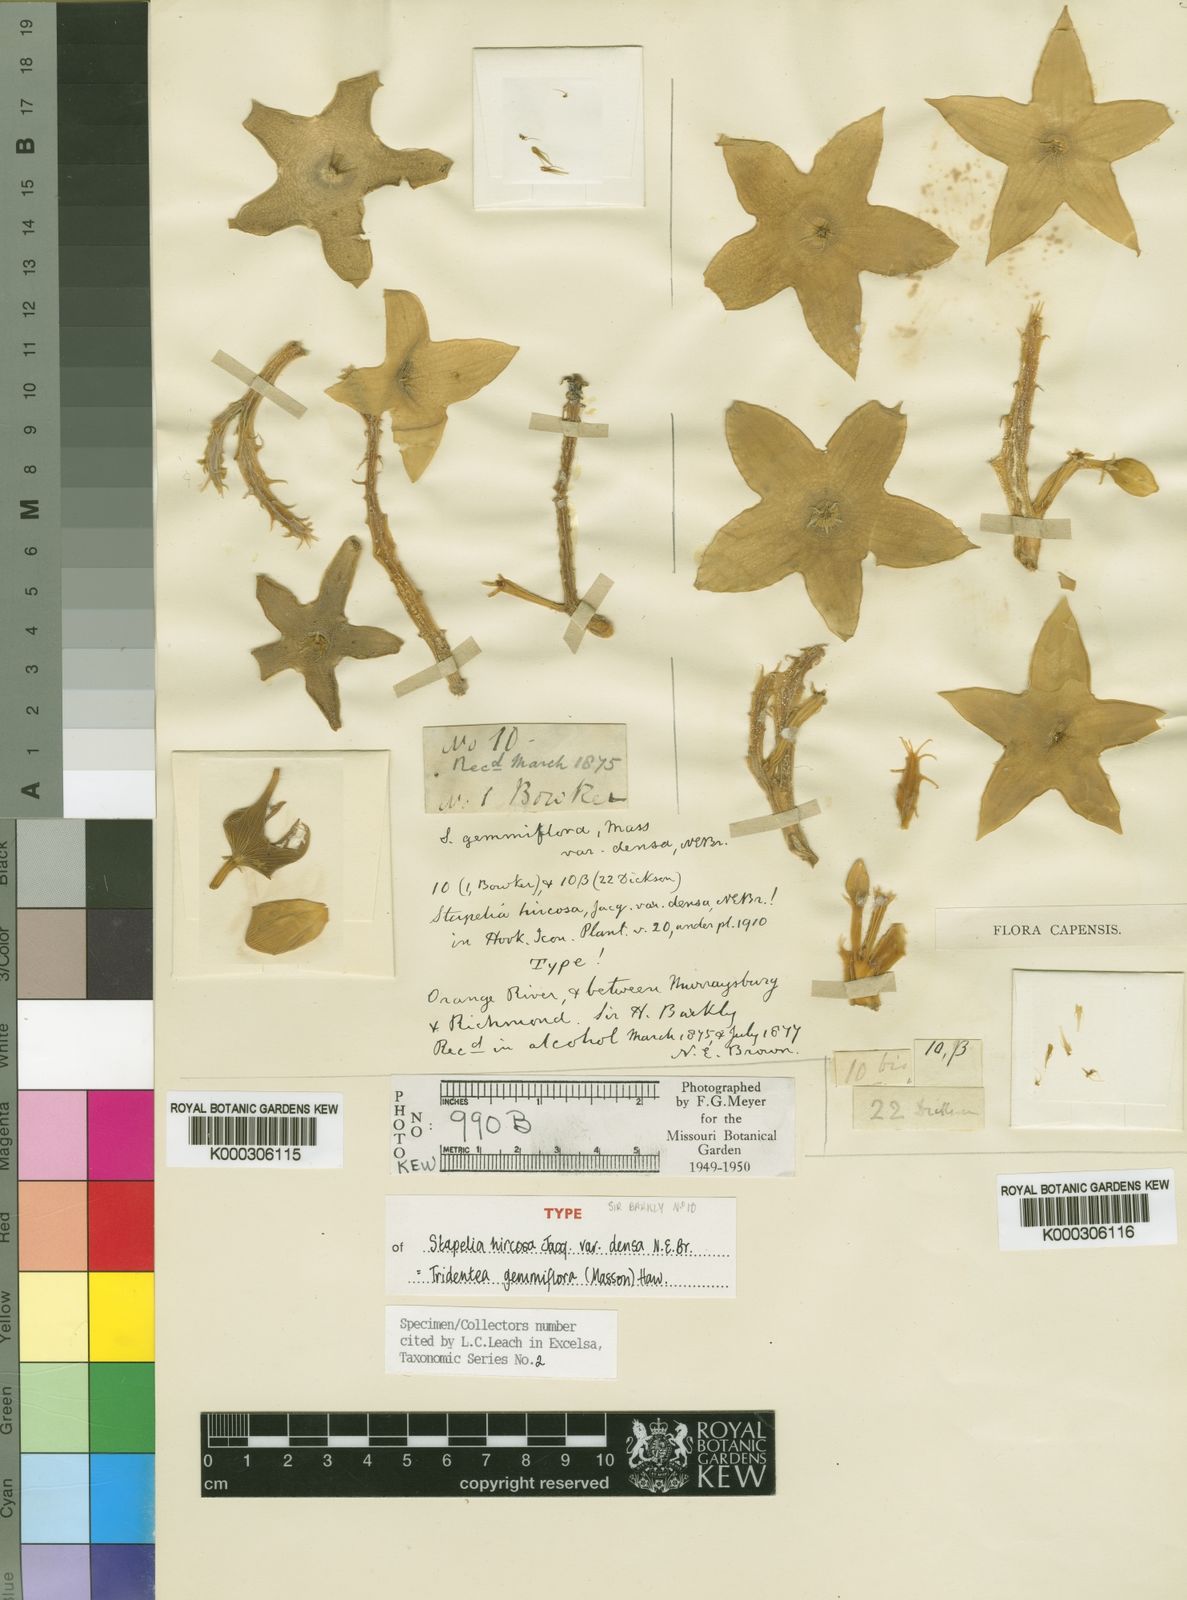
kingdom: Plantae
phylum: Tracheophyta
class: Magnoliopsida
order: Gentianales
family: Apocynaceae
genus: Ceropegia
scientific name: Ceropegia gemmiflora
